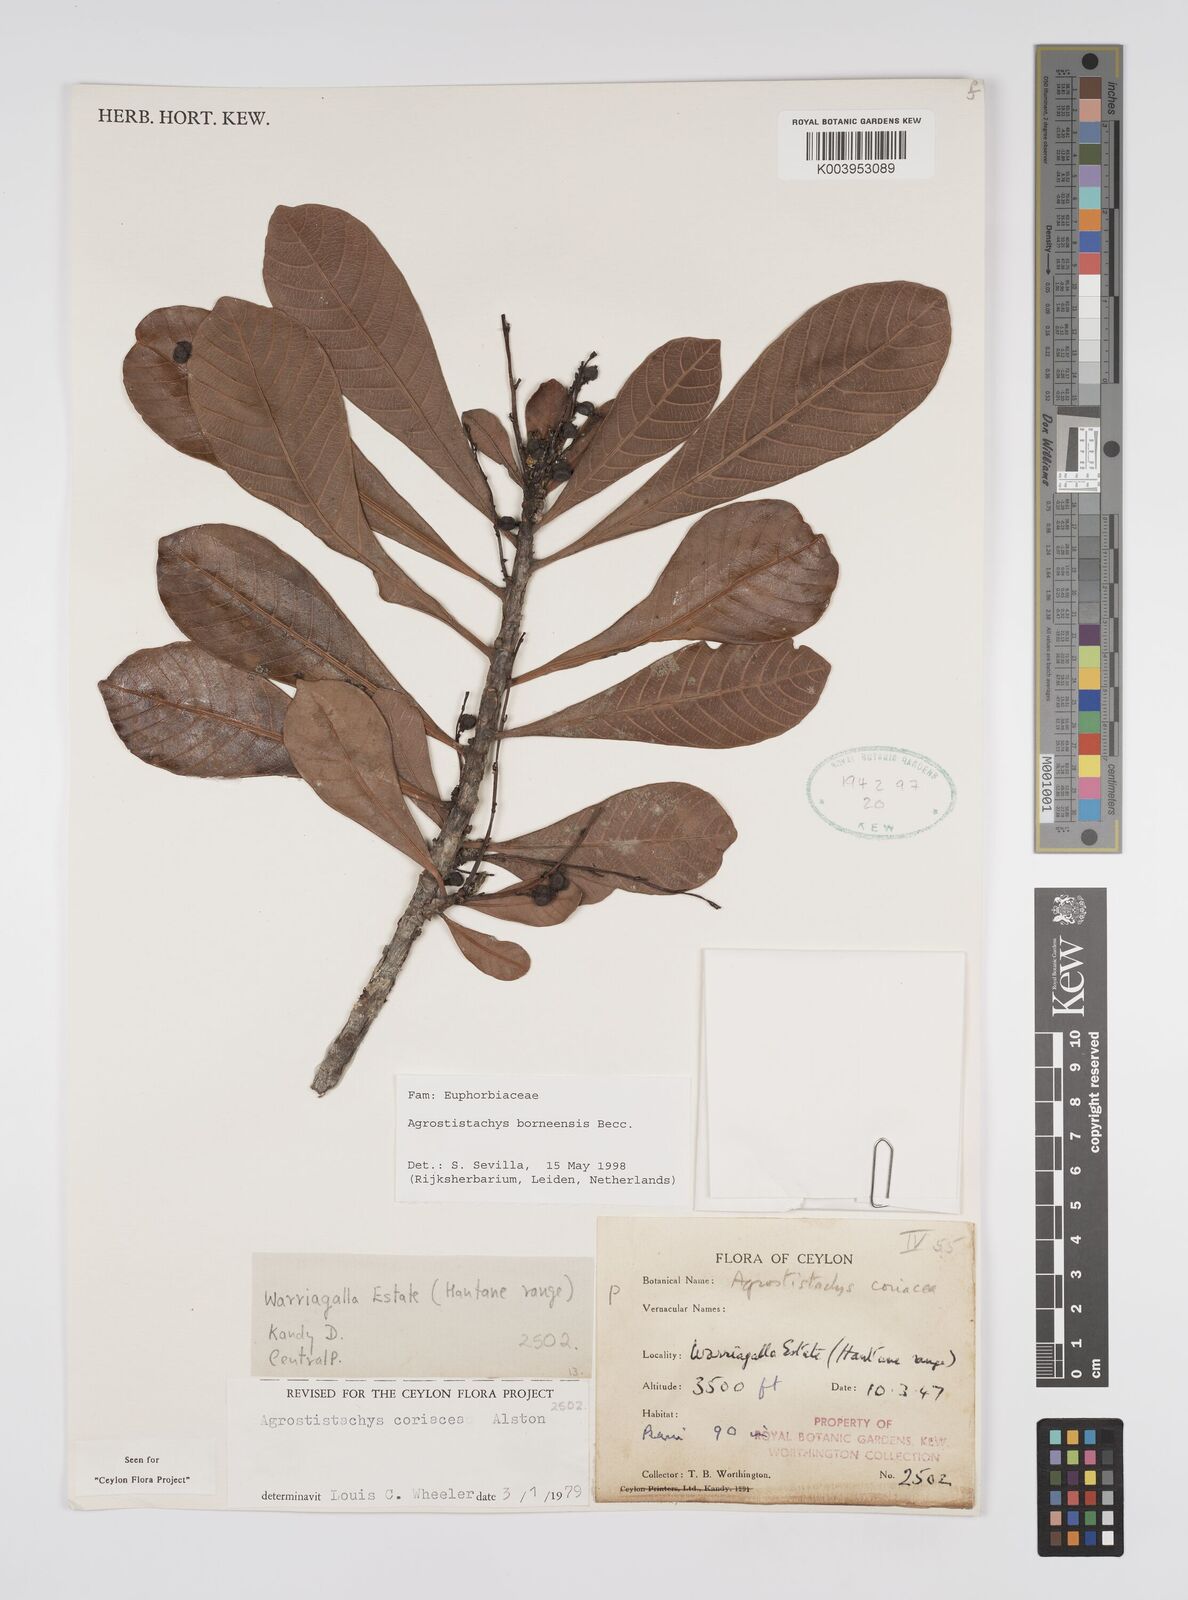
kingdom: Plantae
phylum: Tracheophyta
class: Magnoliopsida
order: Malpighiales
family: Euphorbiaceae
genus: Agrostistachys
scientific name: Agrostistachys borneensis
